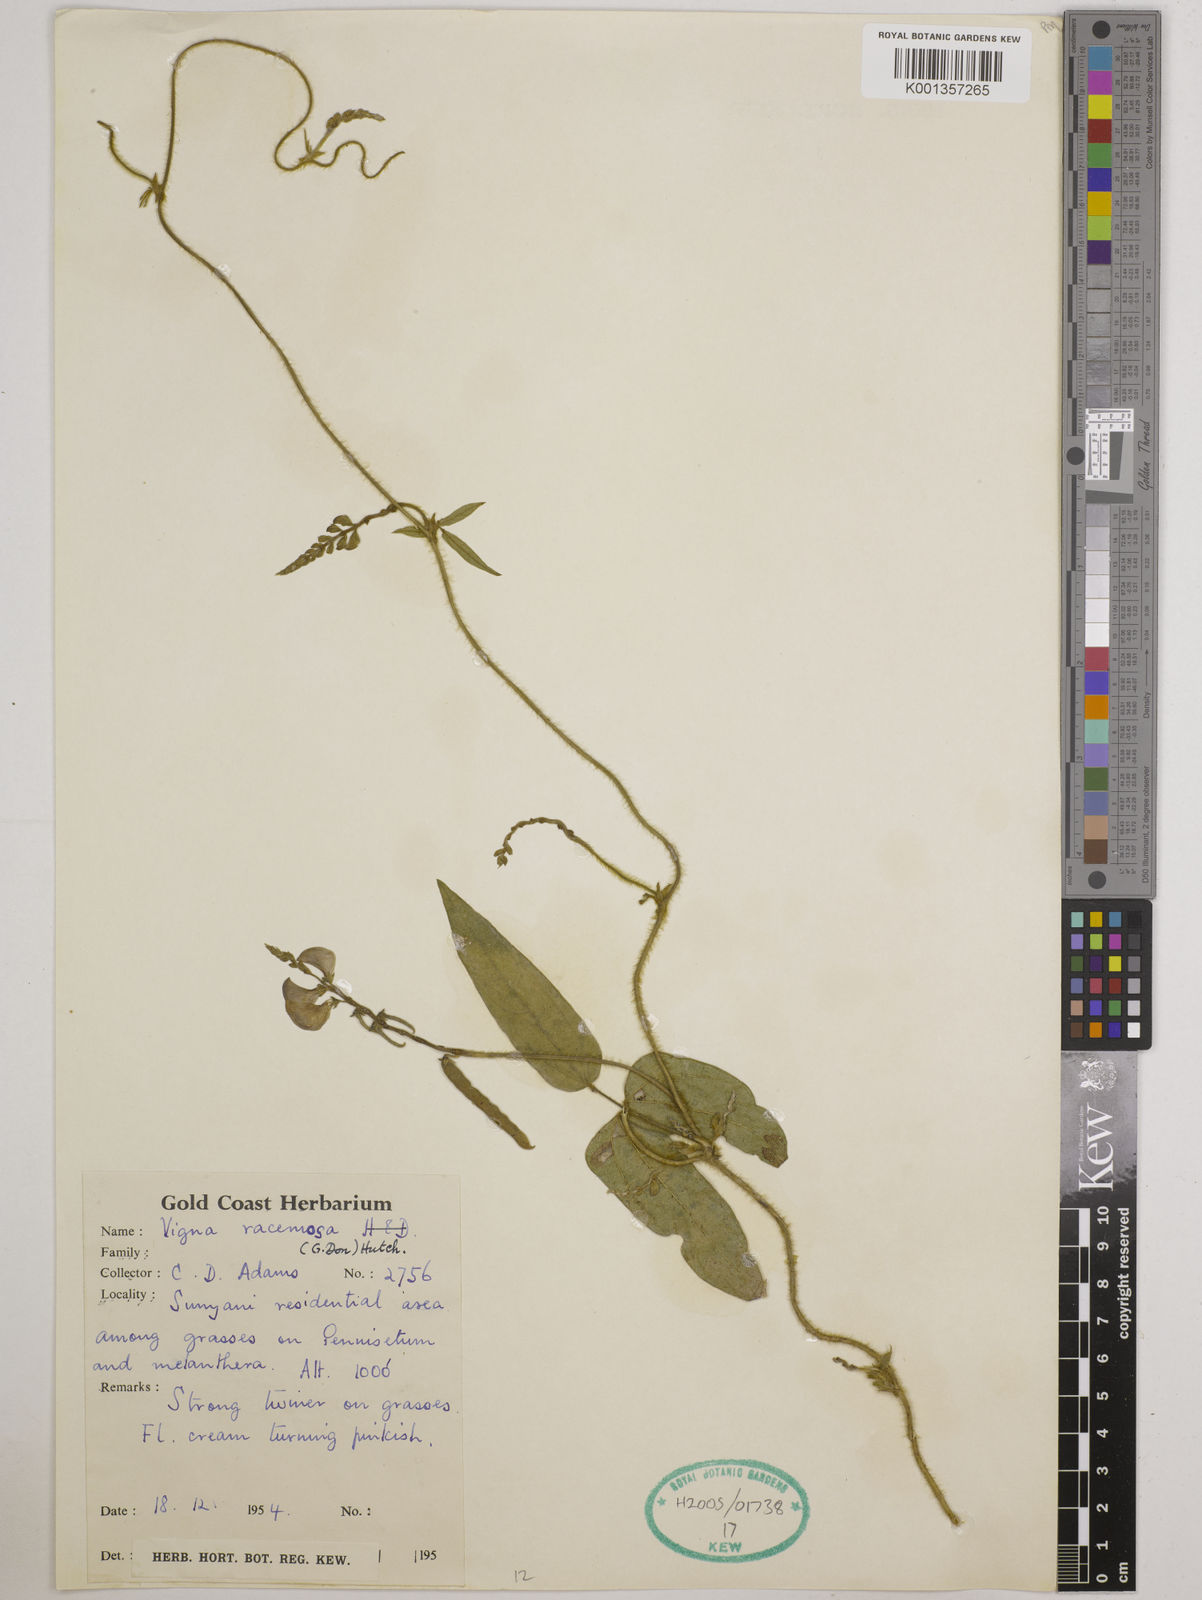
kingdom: Plantae
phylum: Tracheophyta
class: Magnoliopsida
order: Fabales
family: Fabaceae
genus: Vigna
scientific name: Vigna racemosa
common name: Beans not eaten
